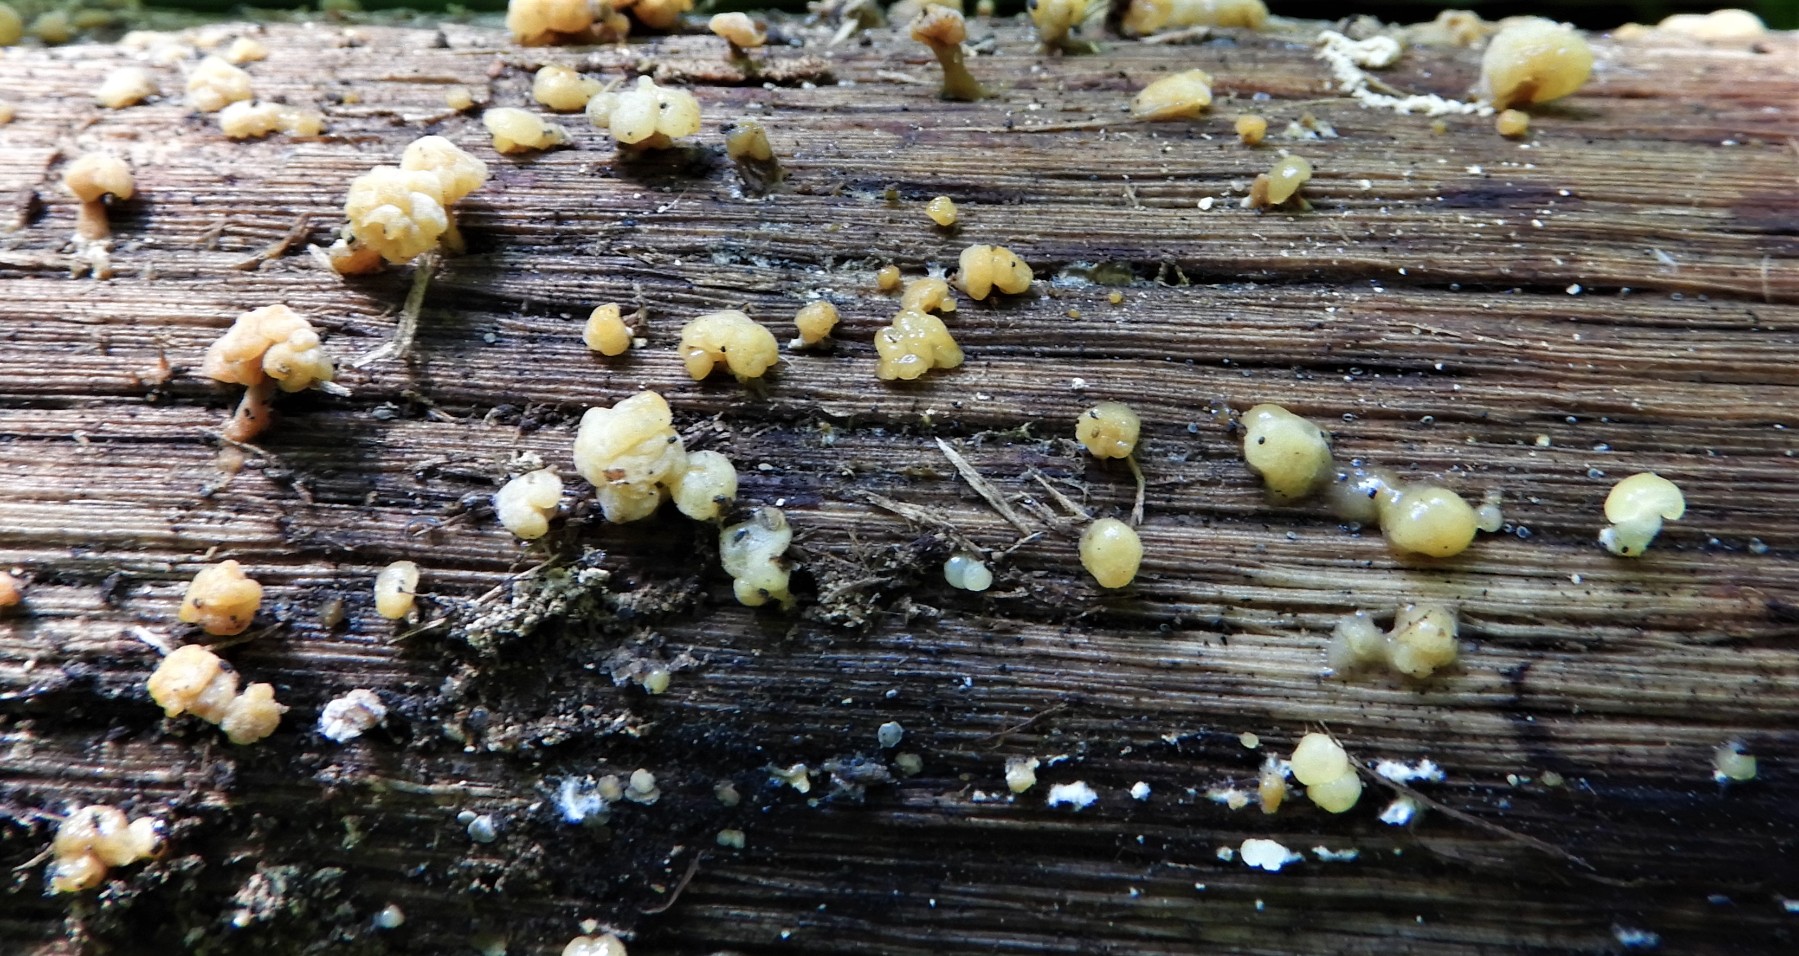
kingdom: Fungi
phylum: Basidiomycota
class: Dacrymycetes
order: Dacrymycetales
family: Dacrymycetaceae
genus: Dacrymyces
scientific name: Dacrymyces capitatus
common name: stilket tåresvamp
